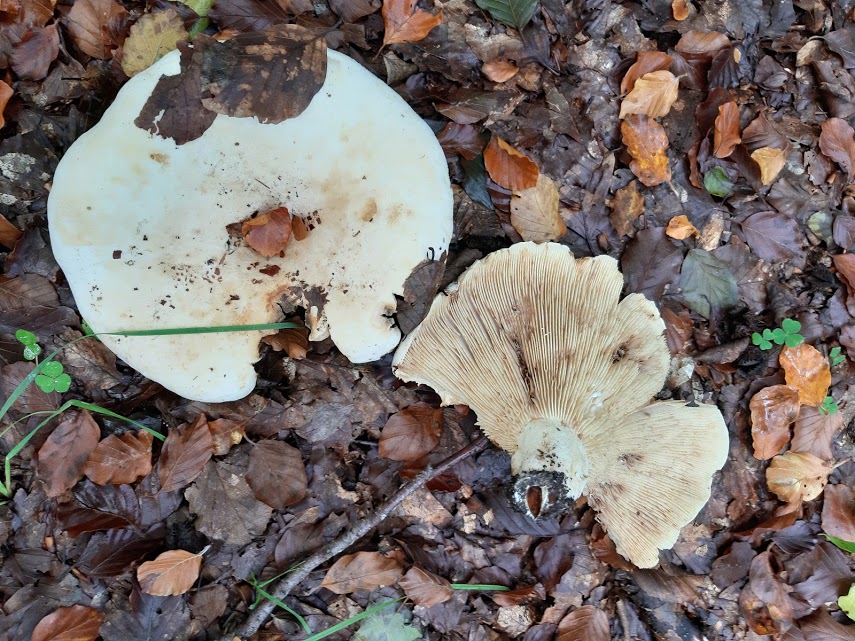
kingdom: Fungi
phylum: Basidiomycota
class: Agaricomycetes
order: Russulales
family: Russulaceae
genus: Lactifluus
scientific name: Lactifluus
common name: mælkehat
